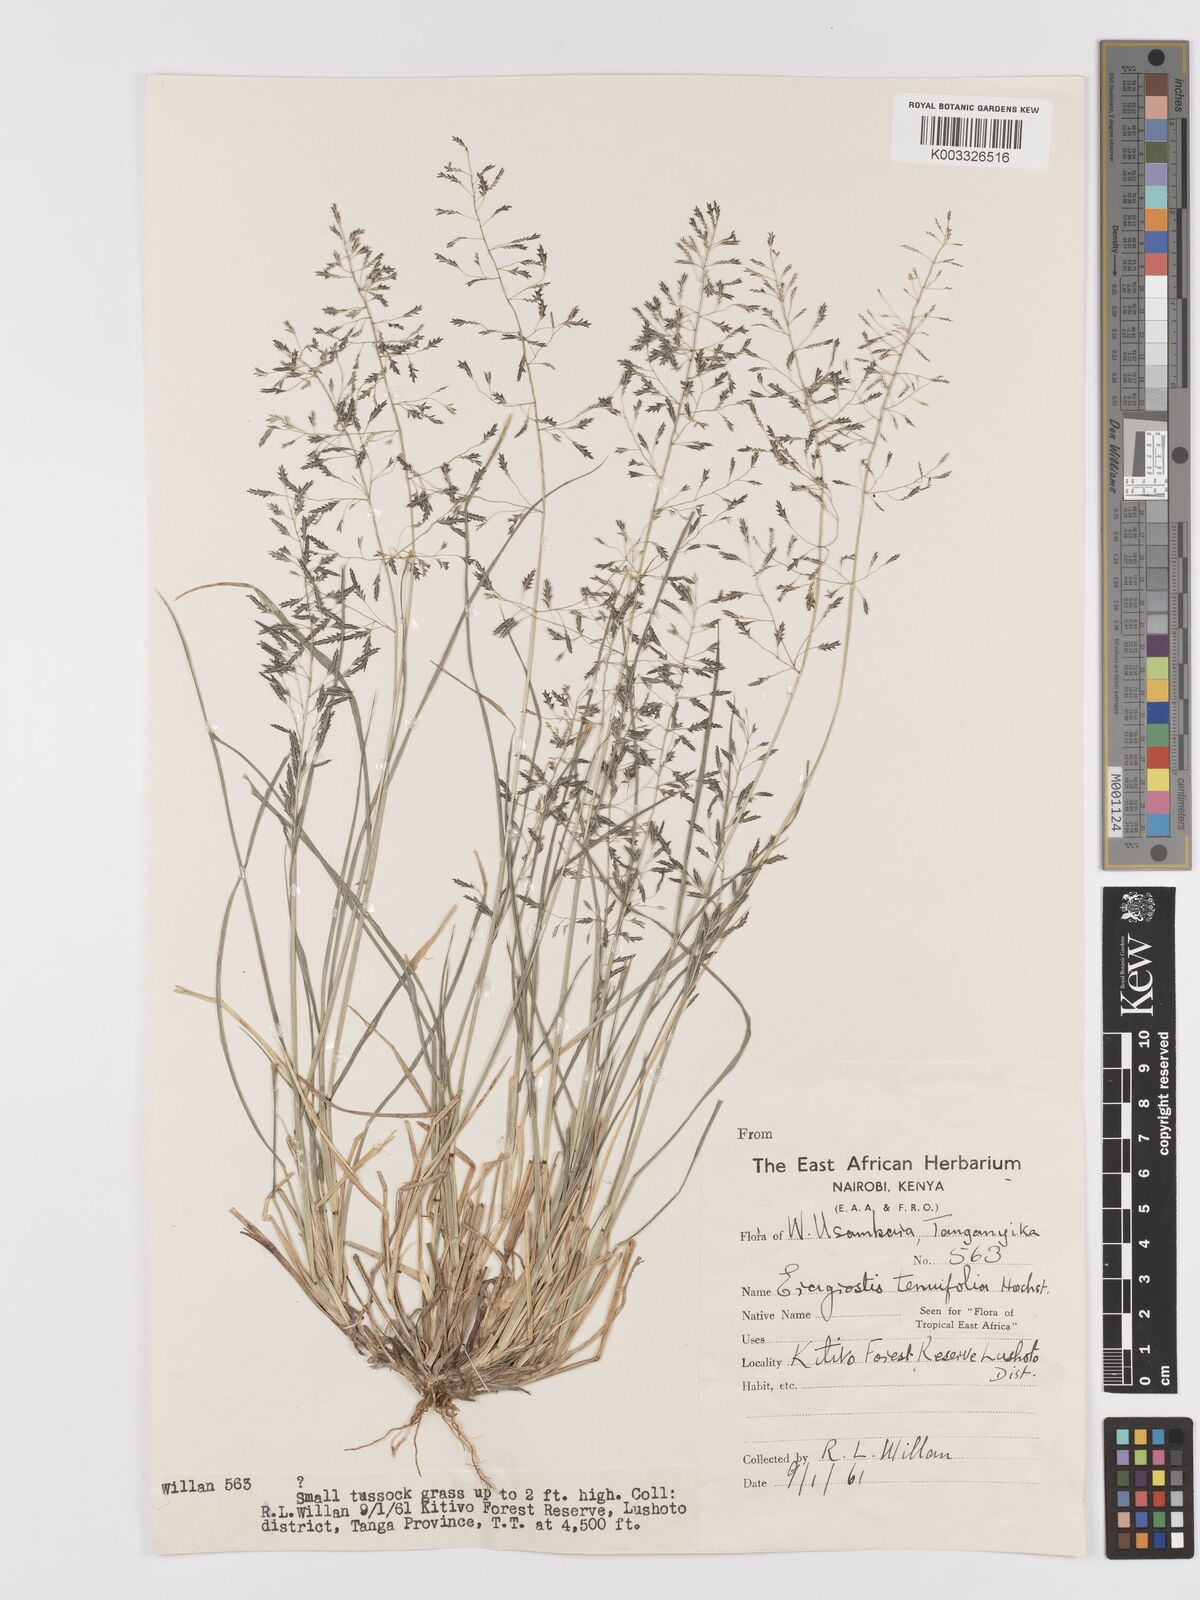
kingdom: Plantae
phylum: Tracheophyta
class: Liliopsida
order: Poales
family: Poaceae
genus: Eragrostis
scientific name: Eragrostis tenuifolia
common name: Elastic grass
